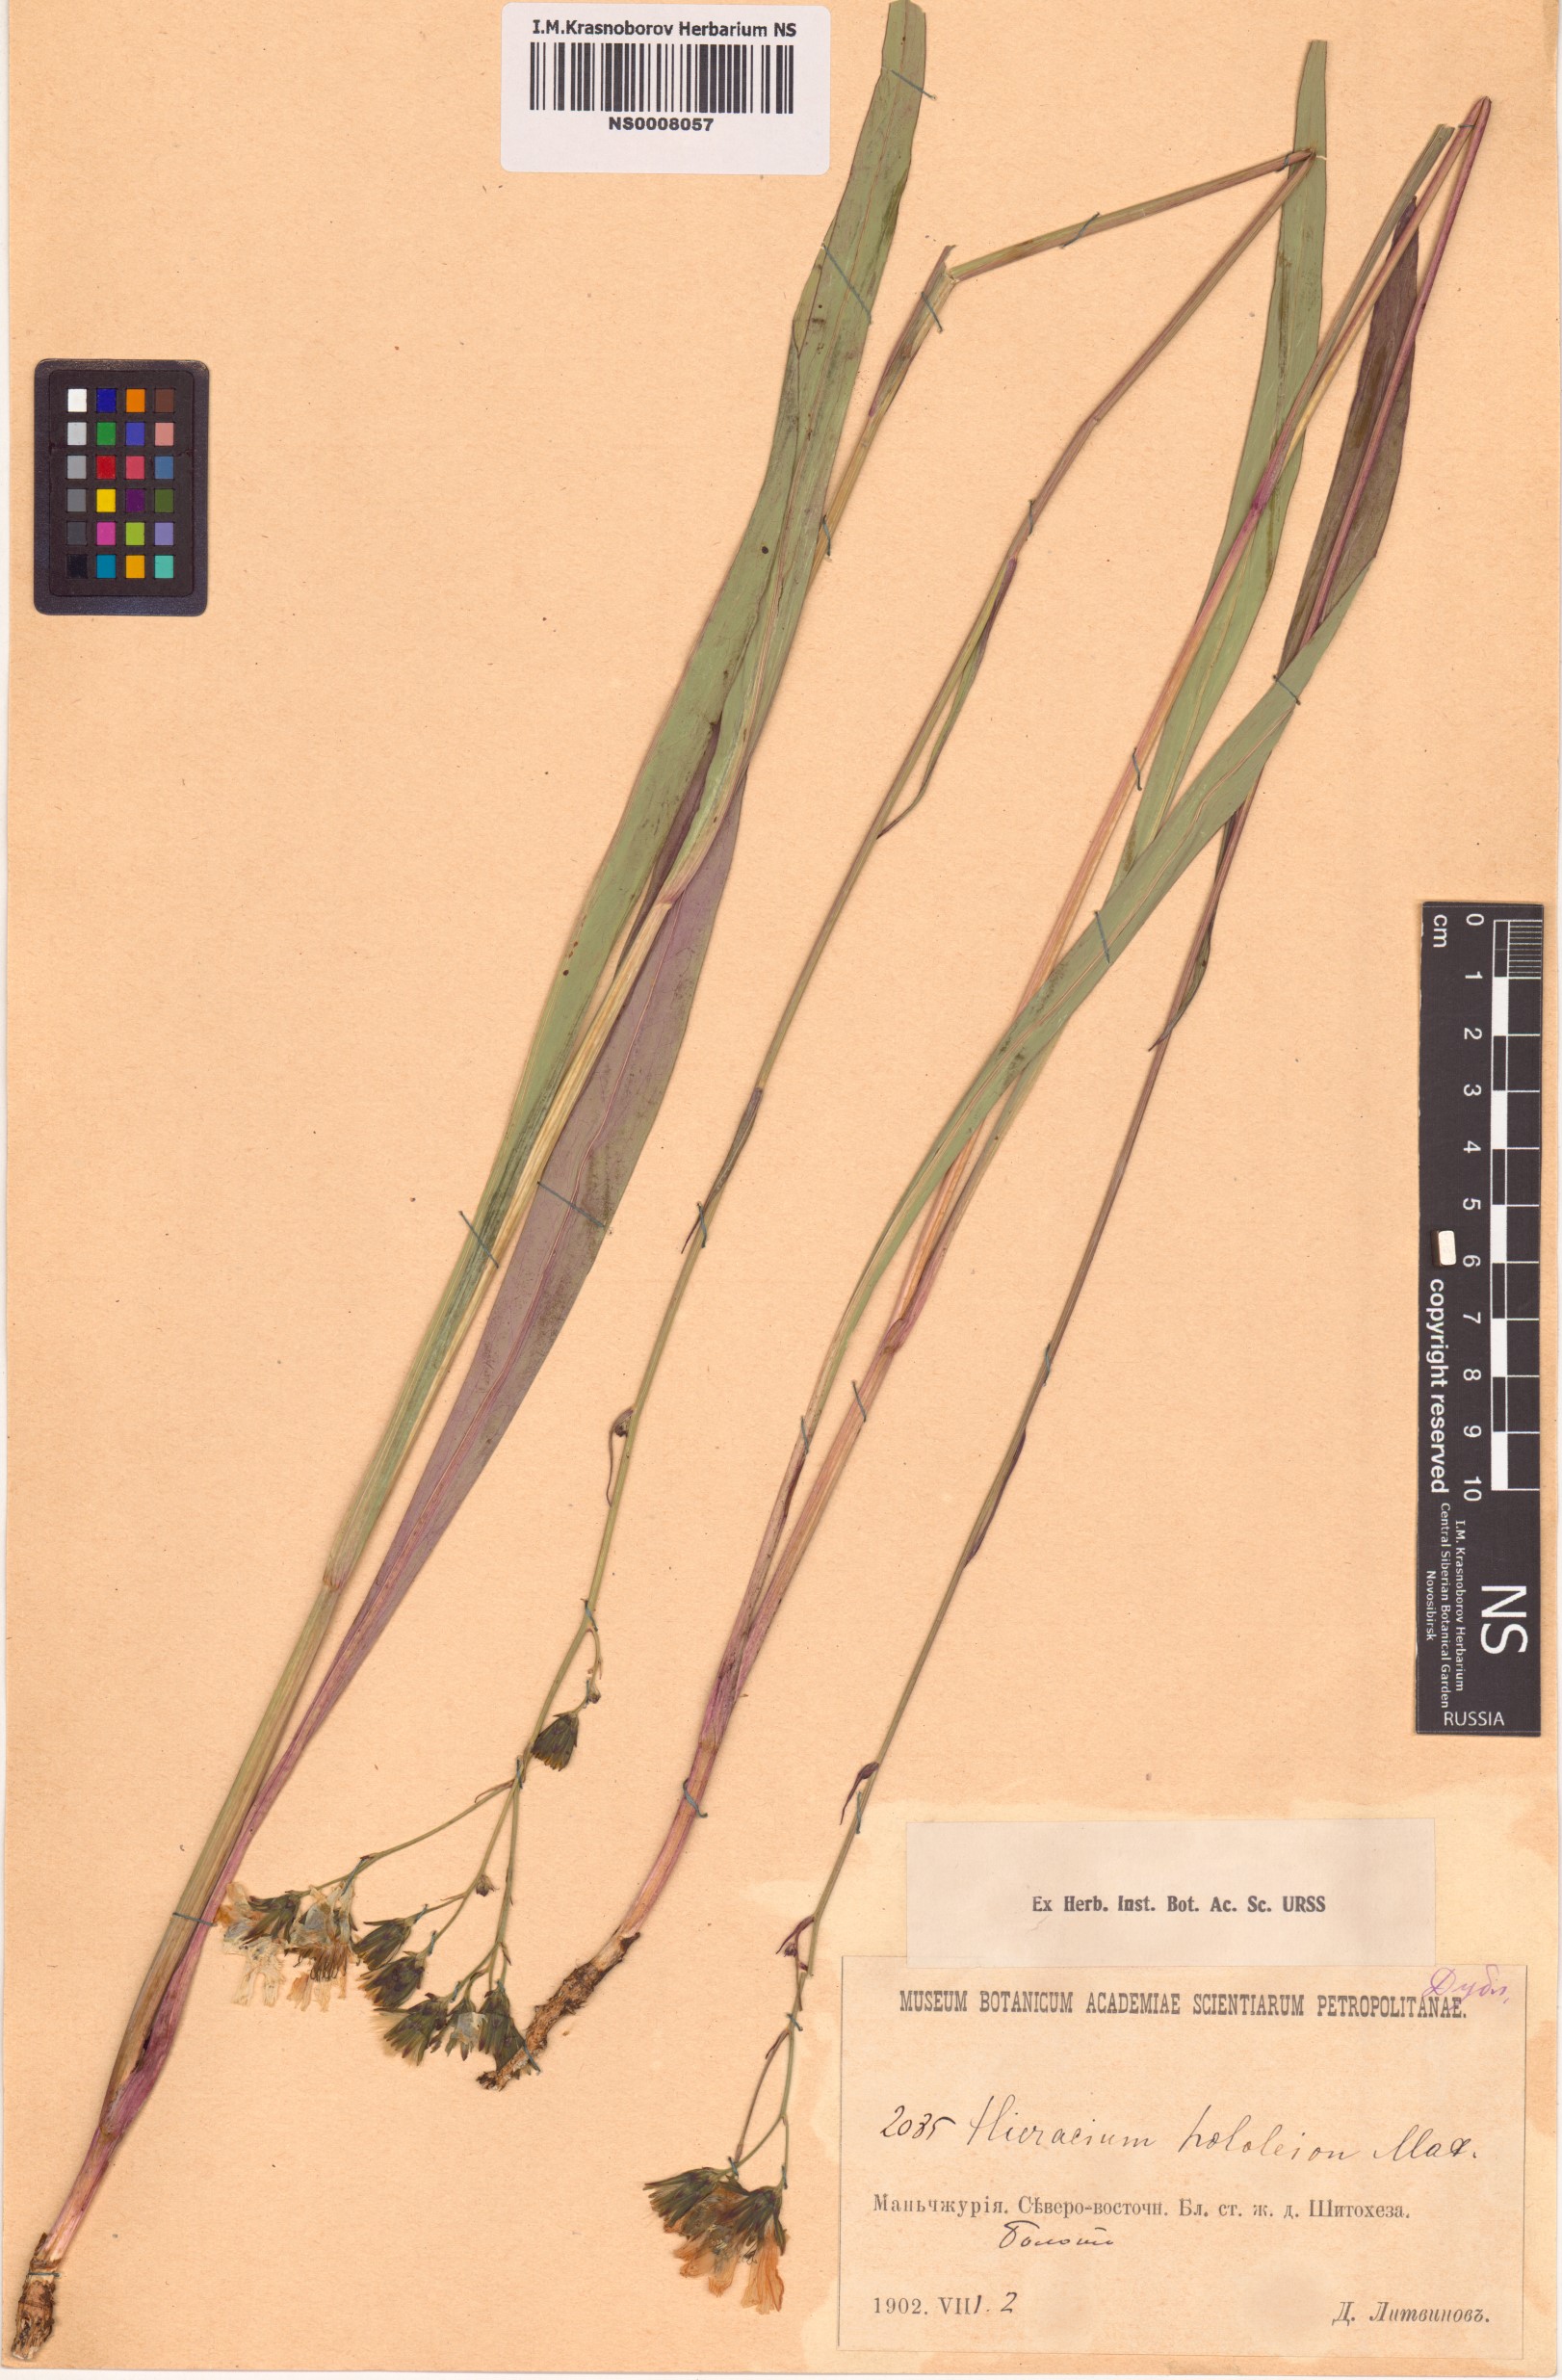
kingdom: Plantae
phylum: Tracheophyta
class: Magnoliopsida
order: Asterales
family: Asteraceae
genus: Hololeion
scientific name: Hololeion maximowiczii
